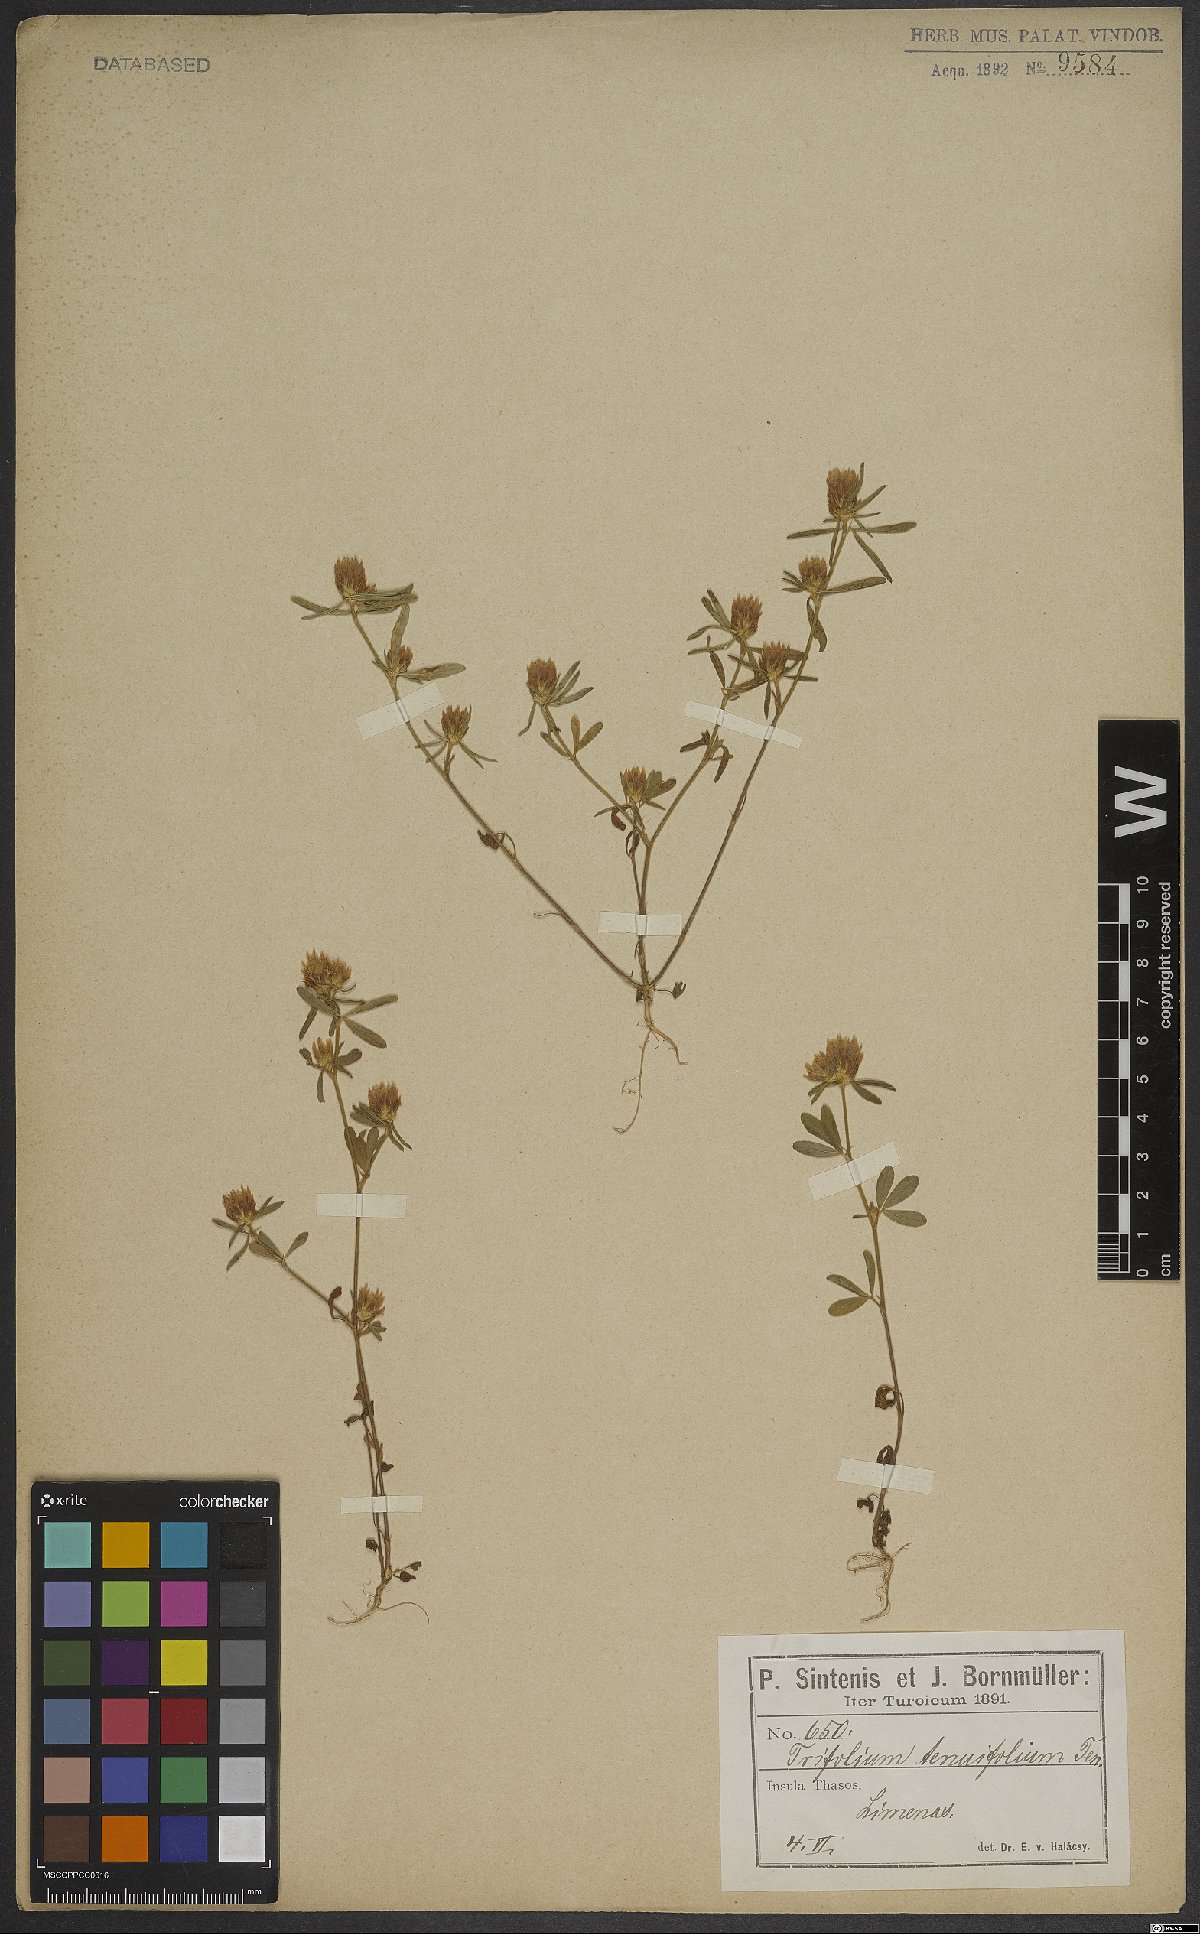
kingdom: Plantae
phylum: Tracheophyta
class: Magnoliopsida
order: Fabales
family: Fabaceae
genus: Trifolium
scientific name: Trifolium tenuifolium
